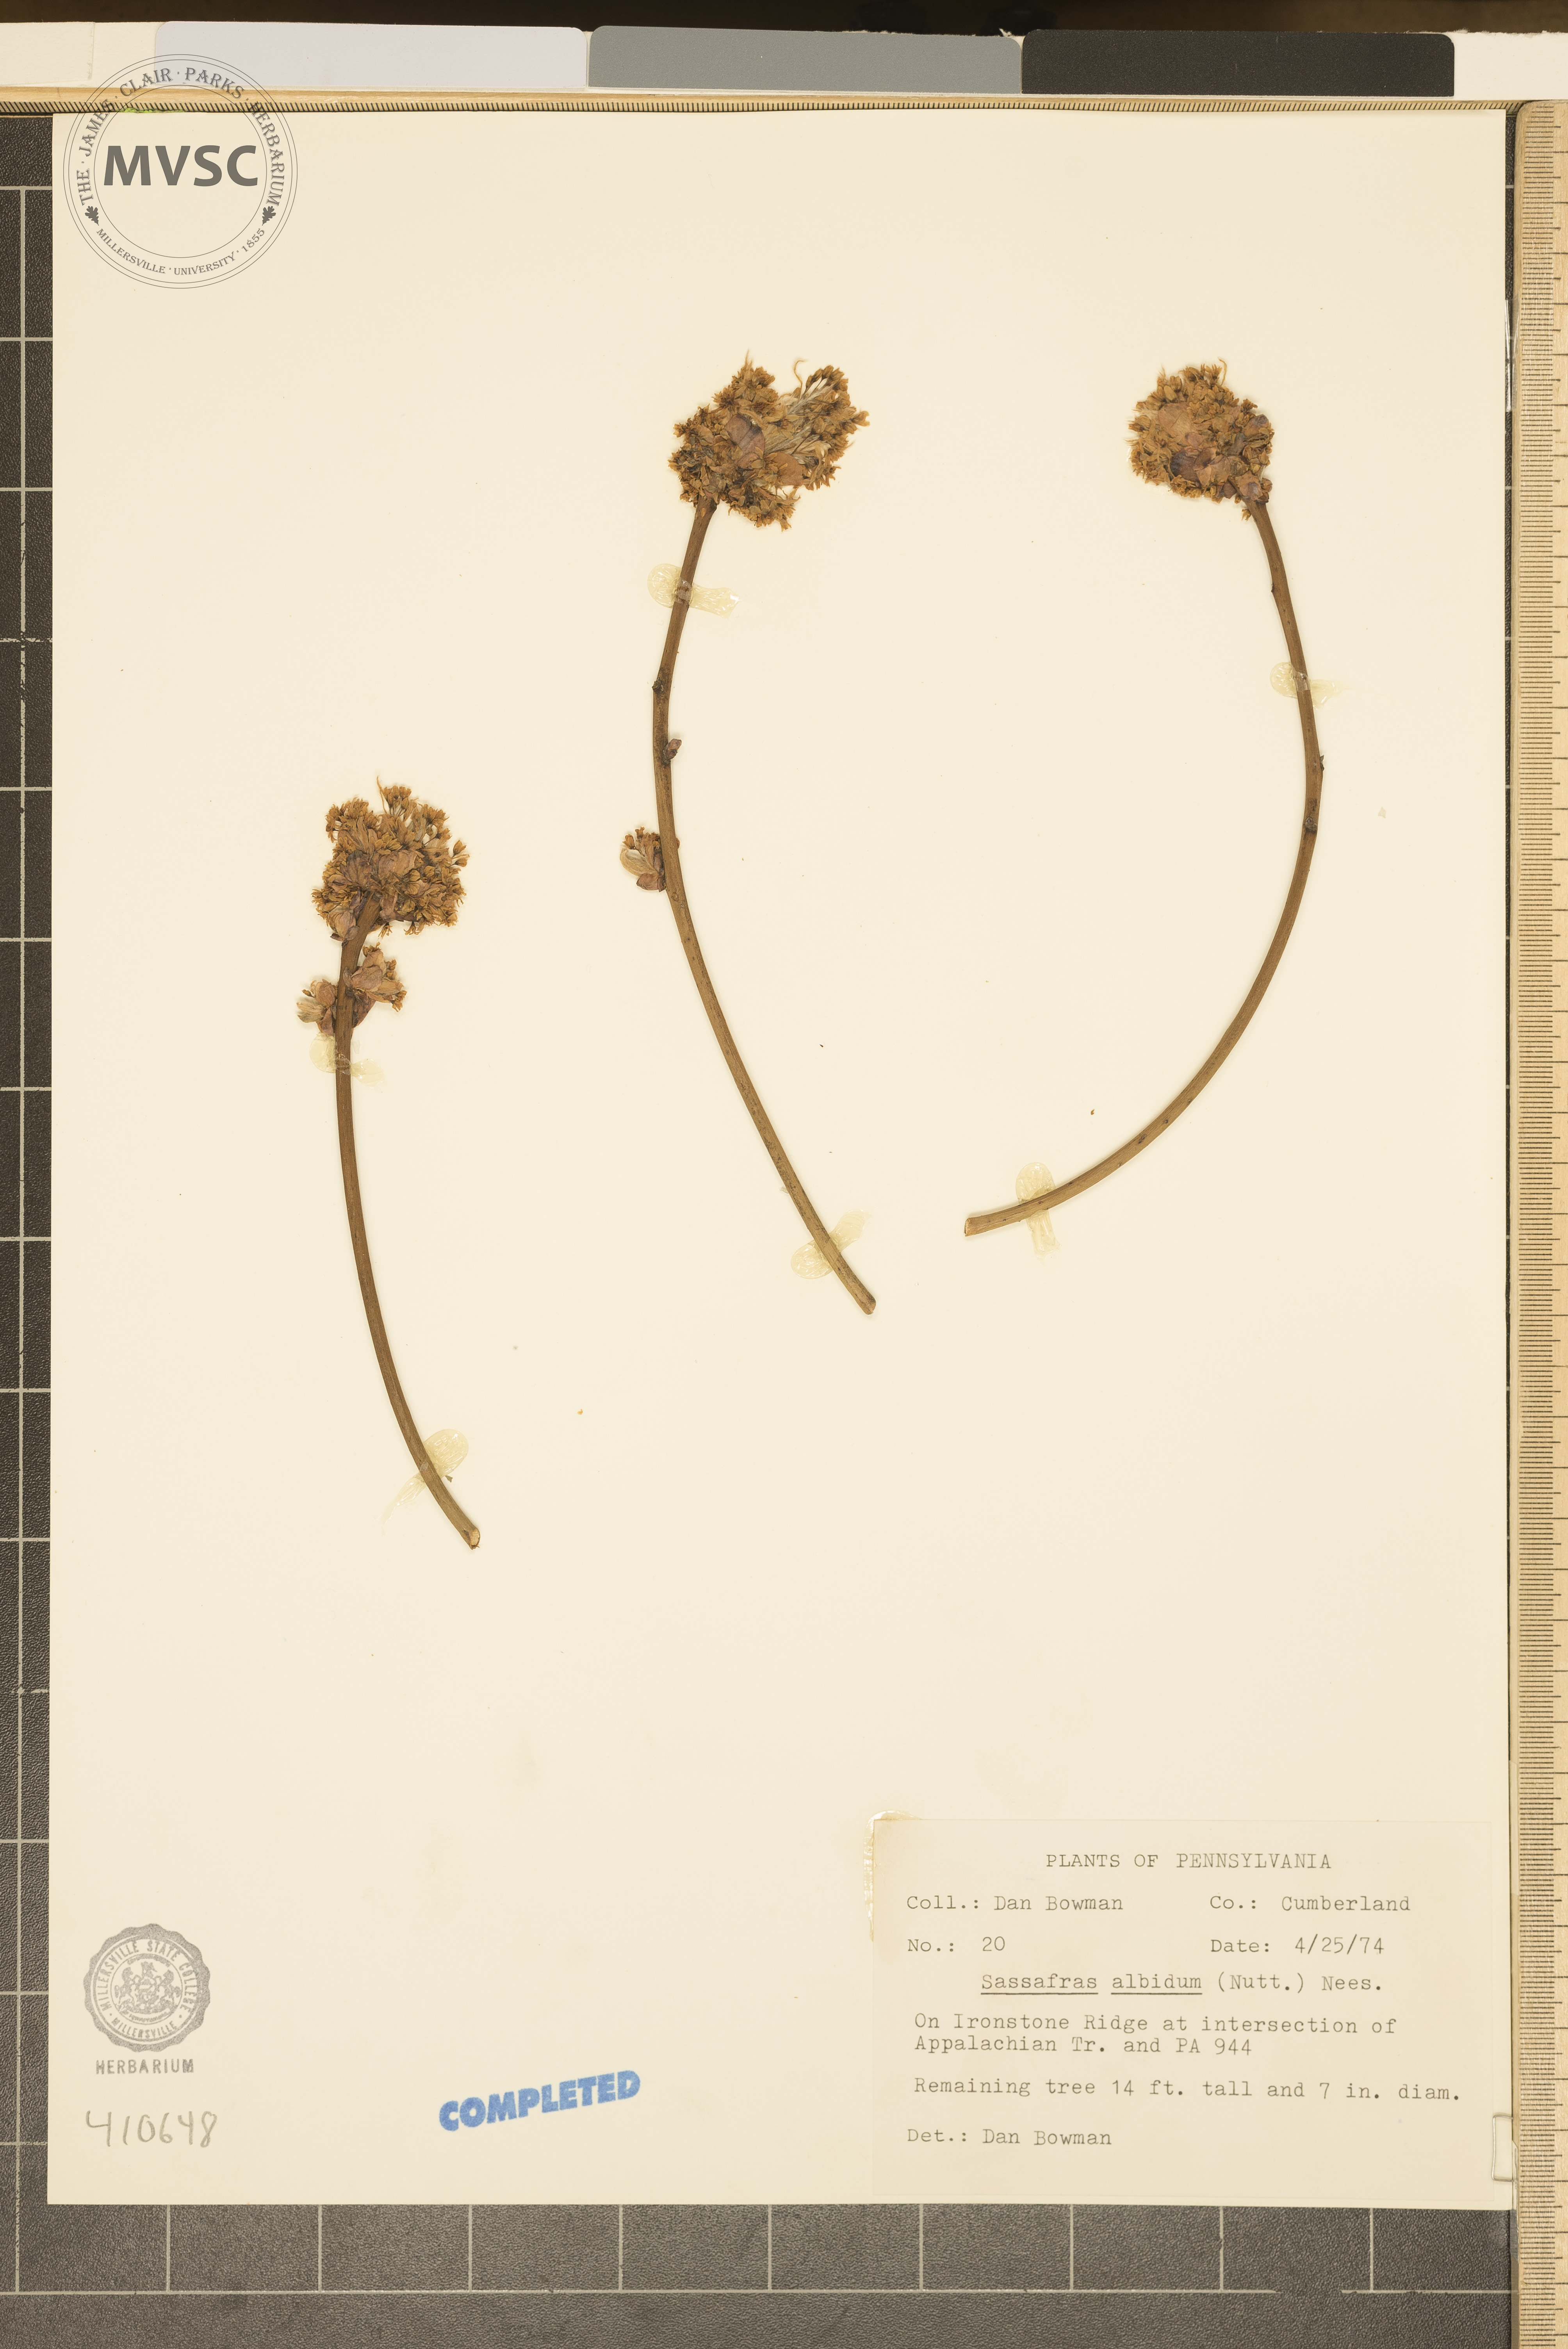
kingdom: Plantae
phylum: Tracheophyta
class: Magnoliopsida
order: Laurales
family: Lauraceae
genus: Sassafras
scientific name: Sassafras albidum
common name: Sassafras
